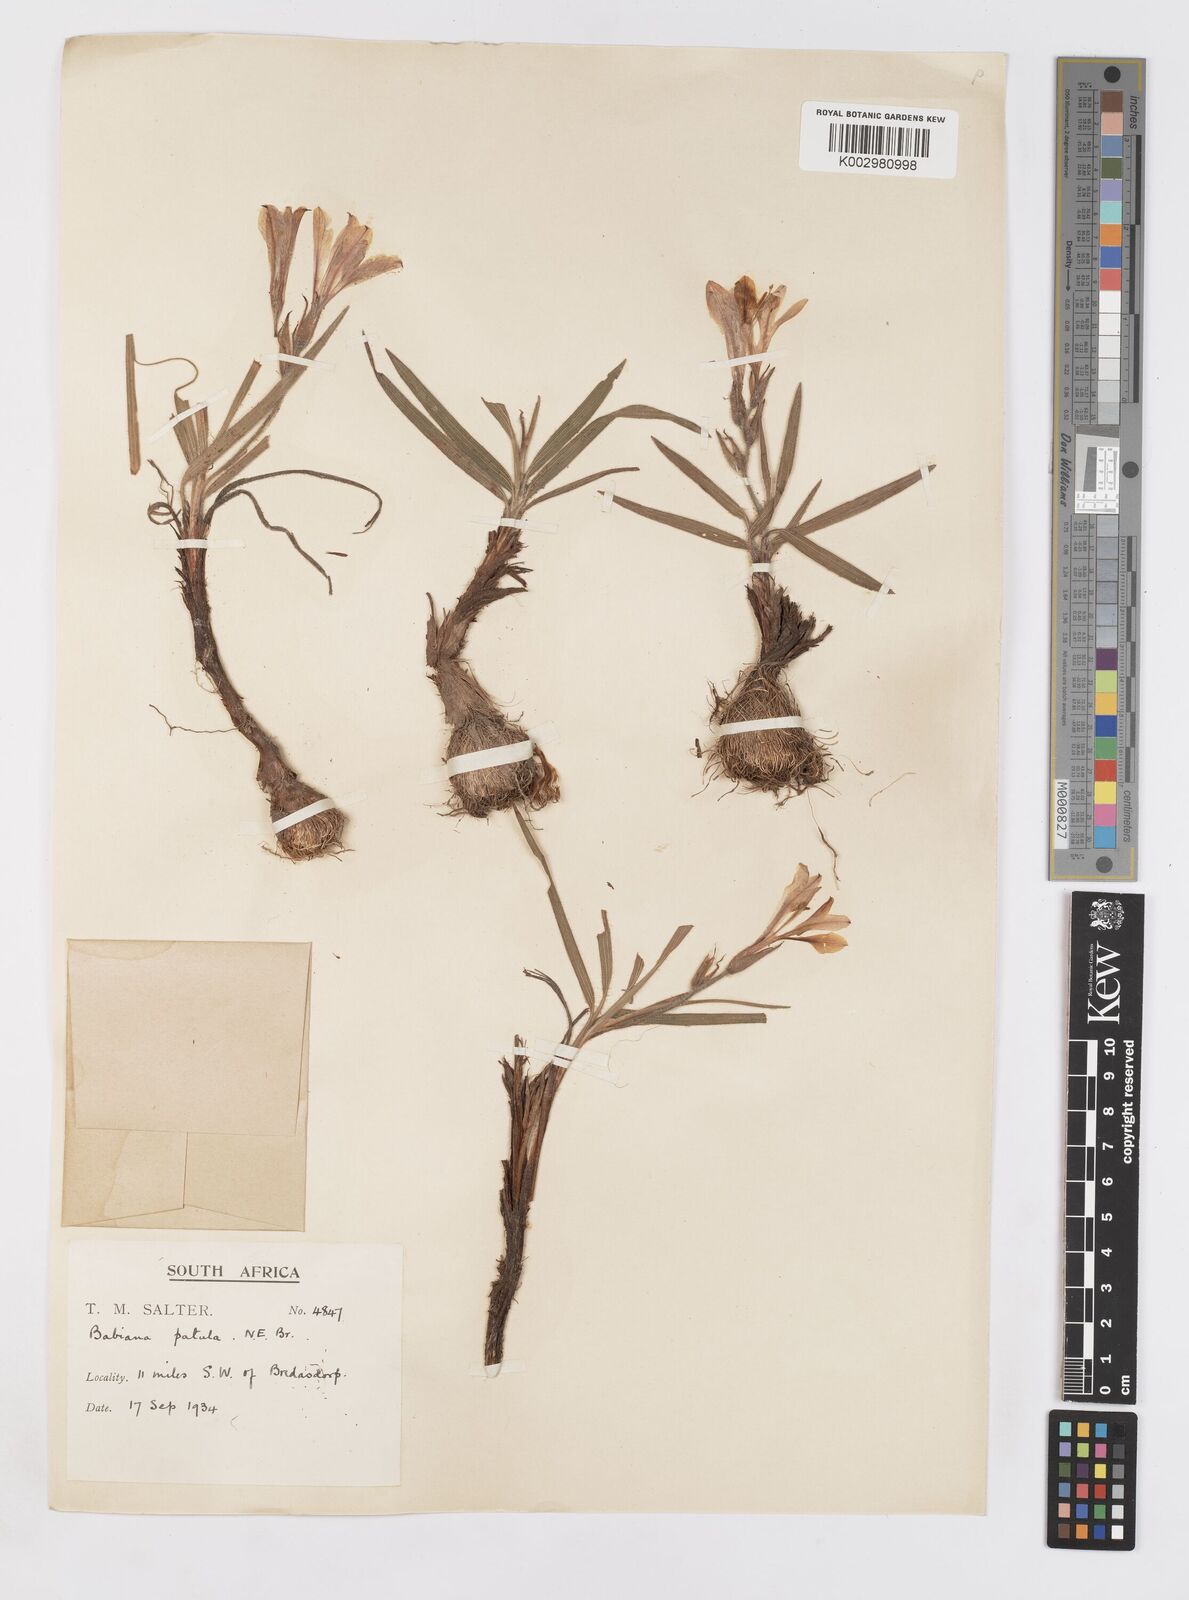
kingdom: Plantae
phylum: Tracheophyta
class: Liliopsida
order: Asparagales
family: Iridaceae
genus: Babiana
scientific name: Babiana patula
